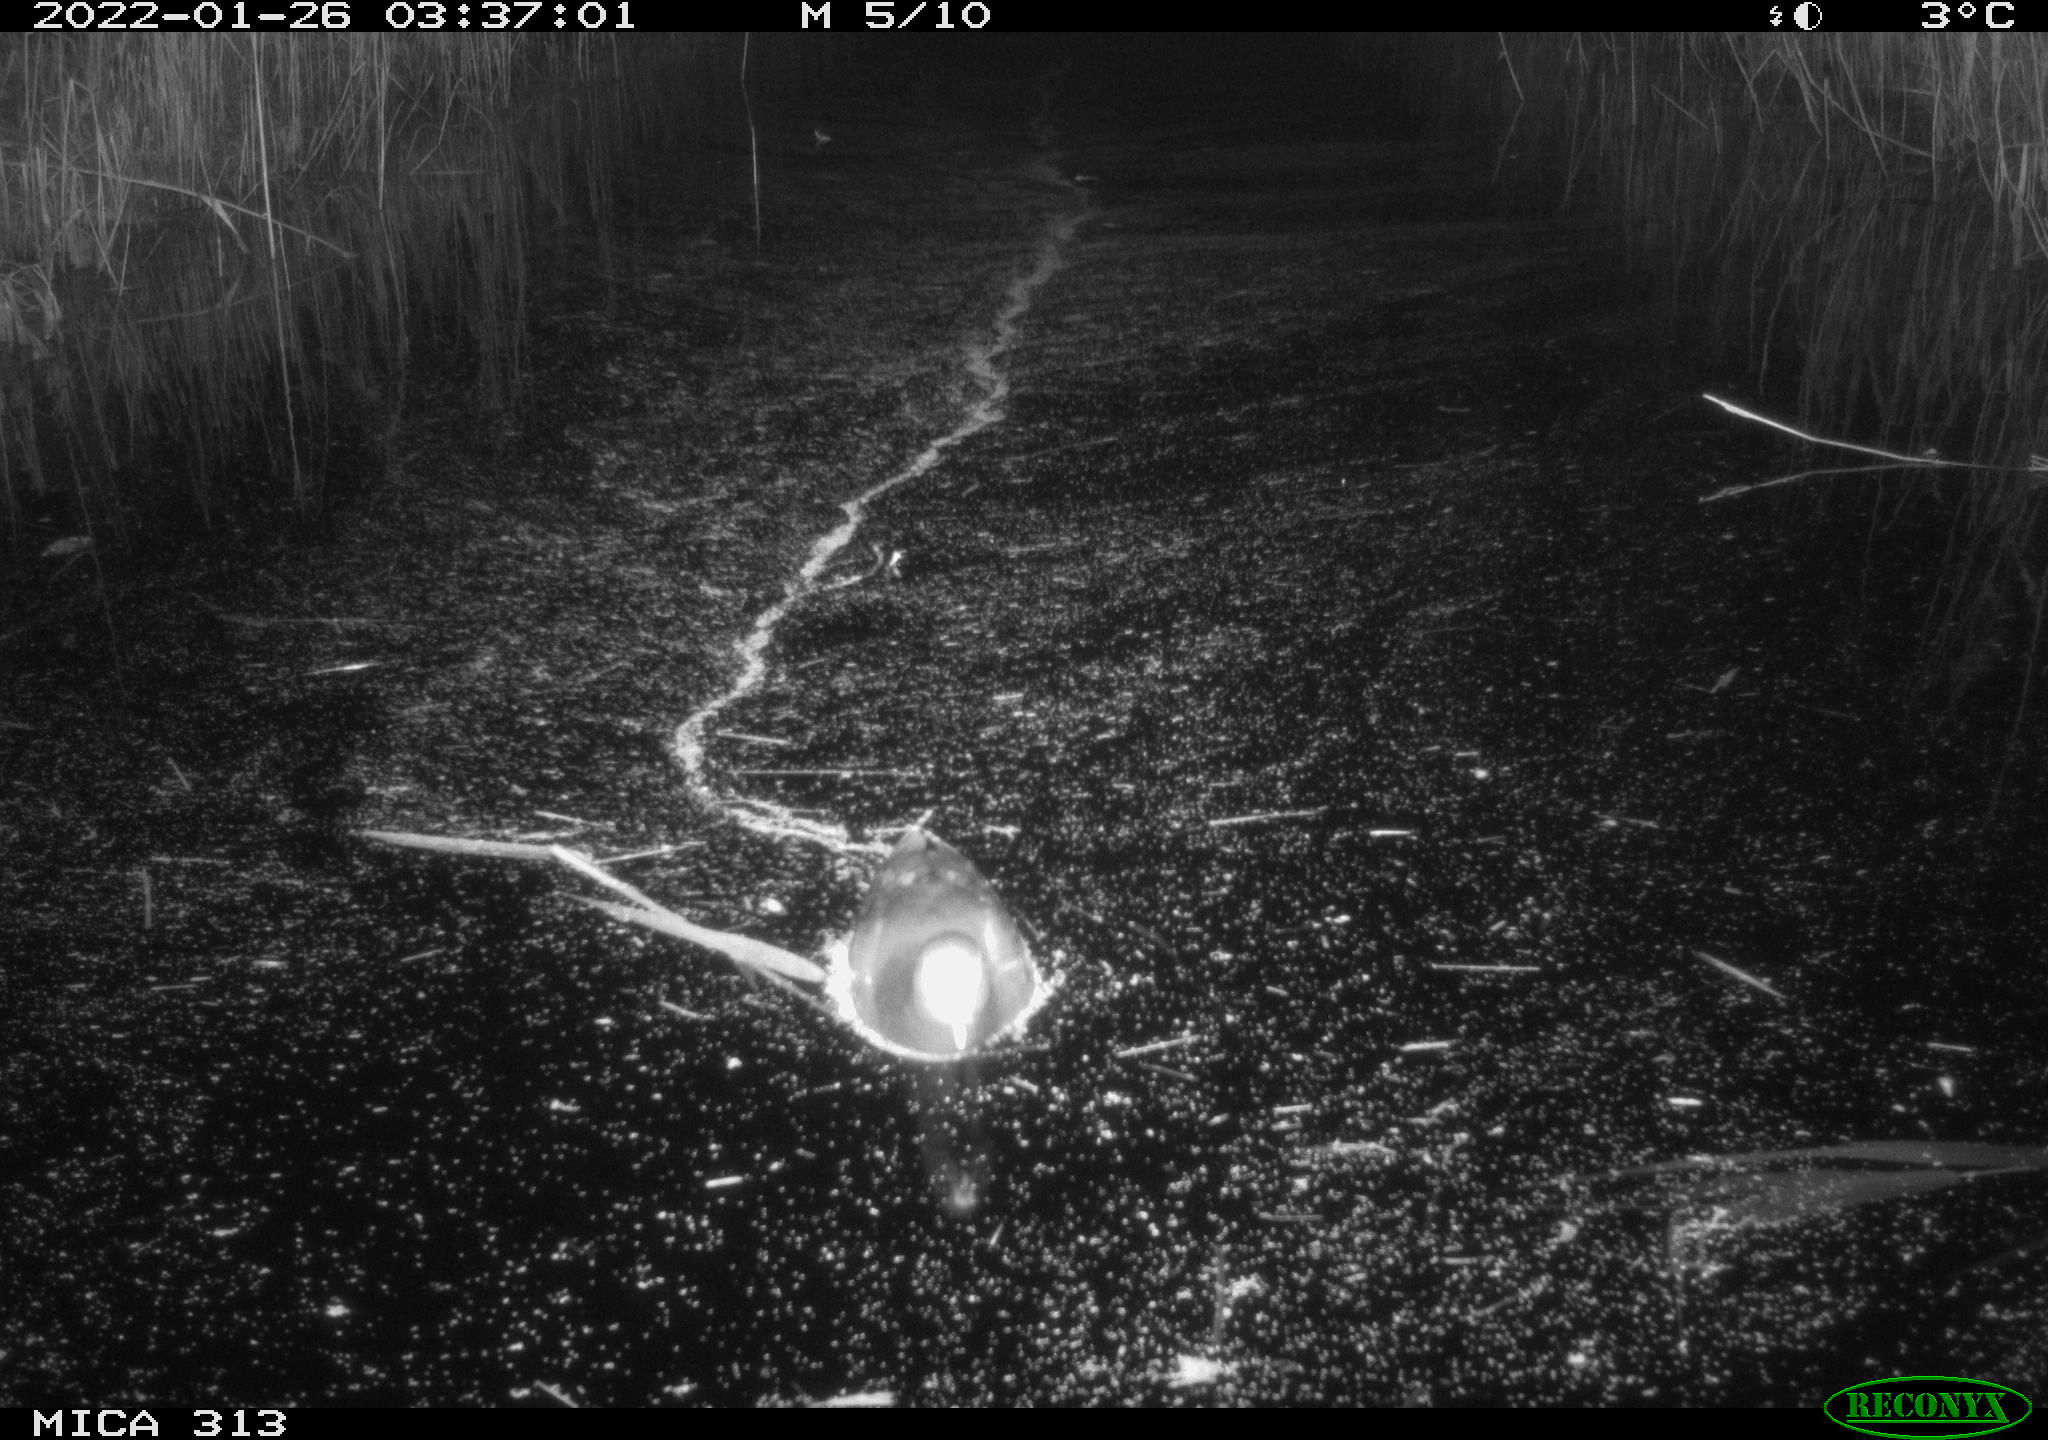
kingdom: Animalia
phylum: Chordata
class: Aves
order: Gruiformes
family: Rallidae
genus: Gallinula
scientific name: Gallinula chloropus
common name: Common moorhen
